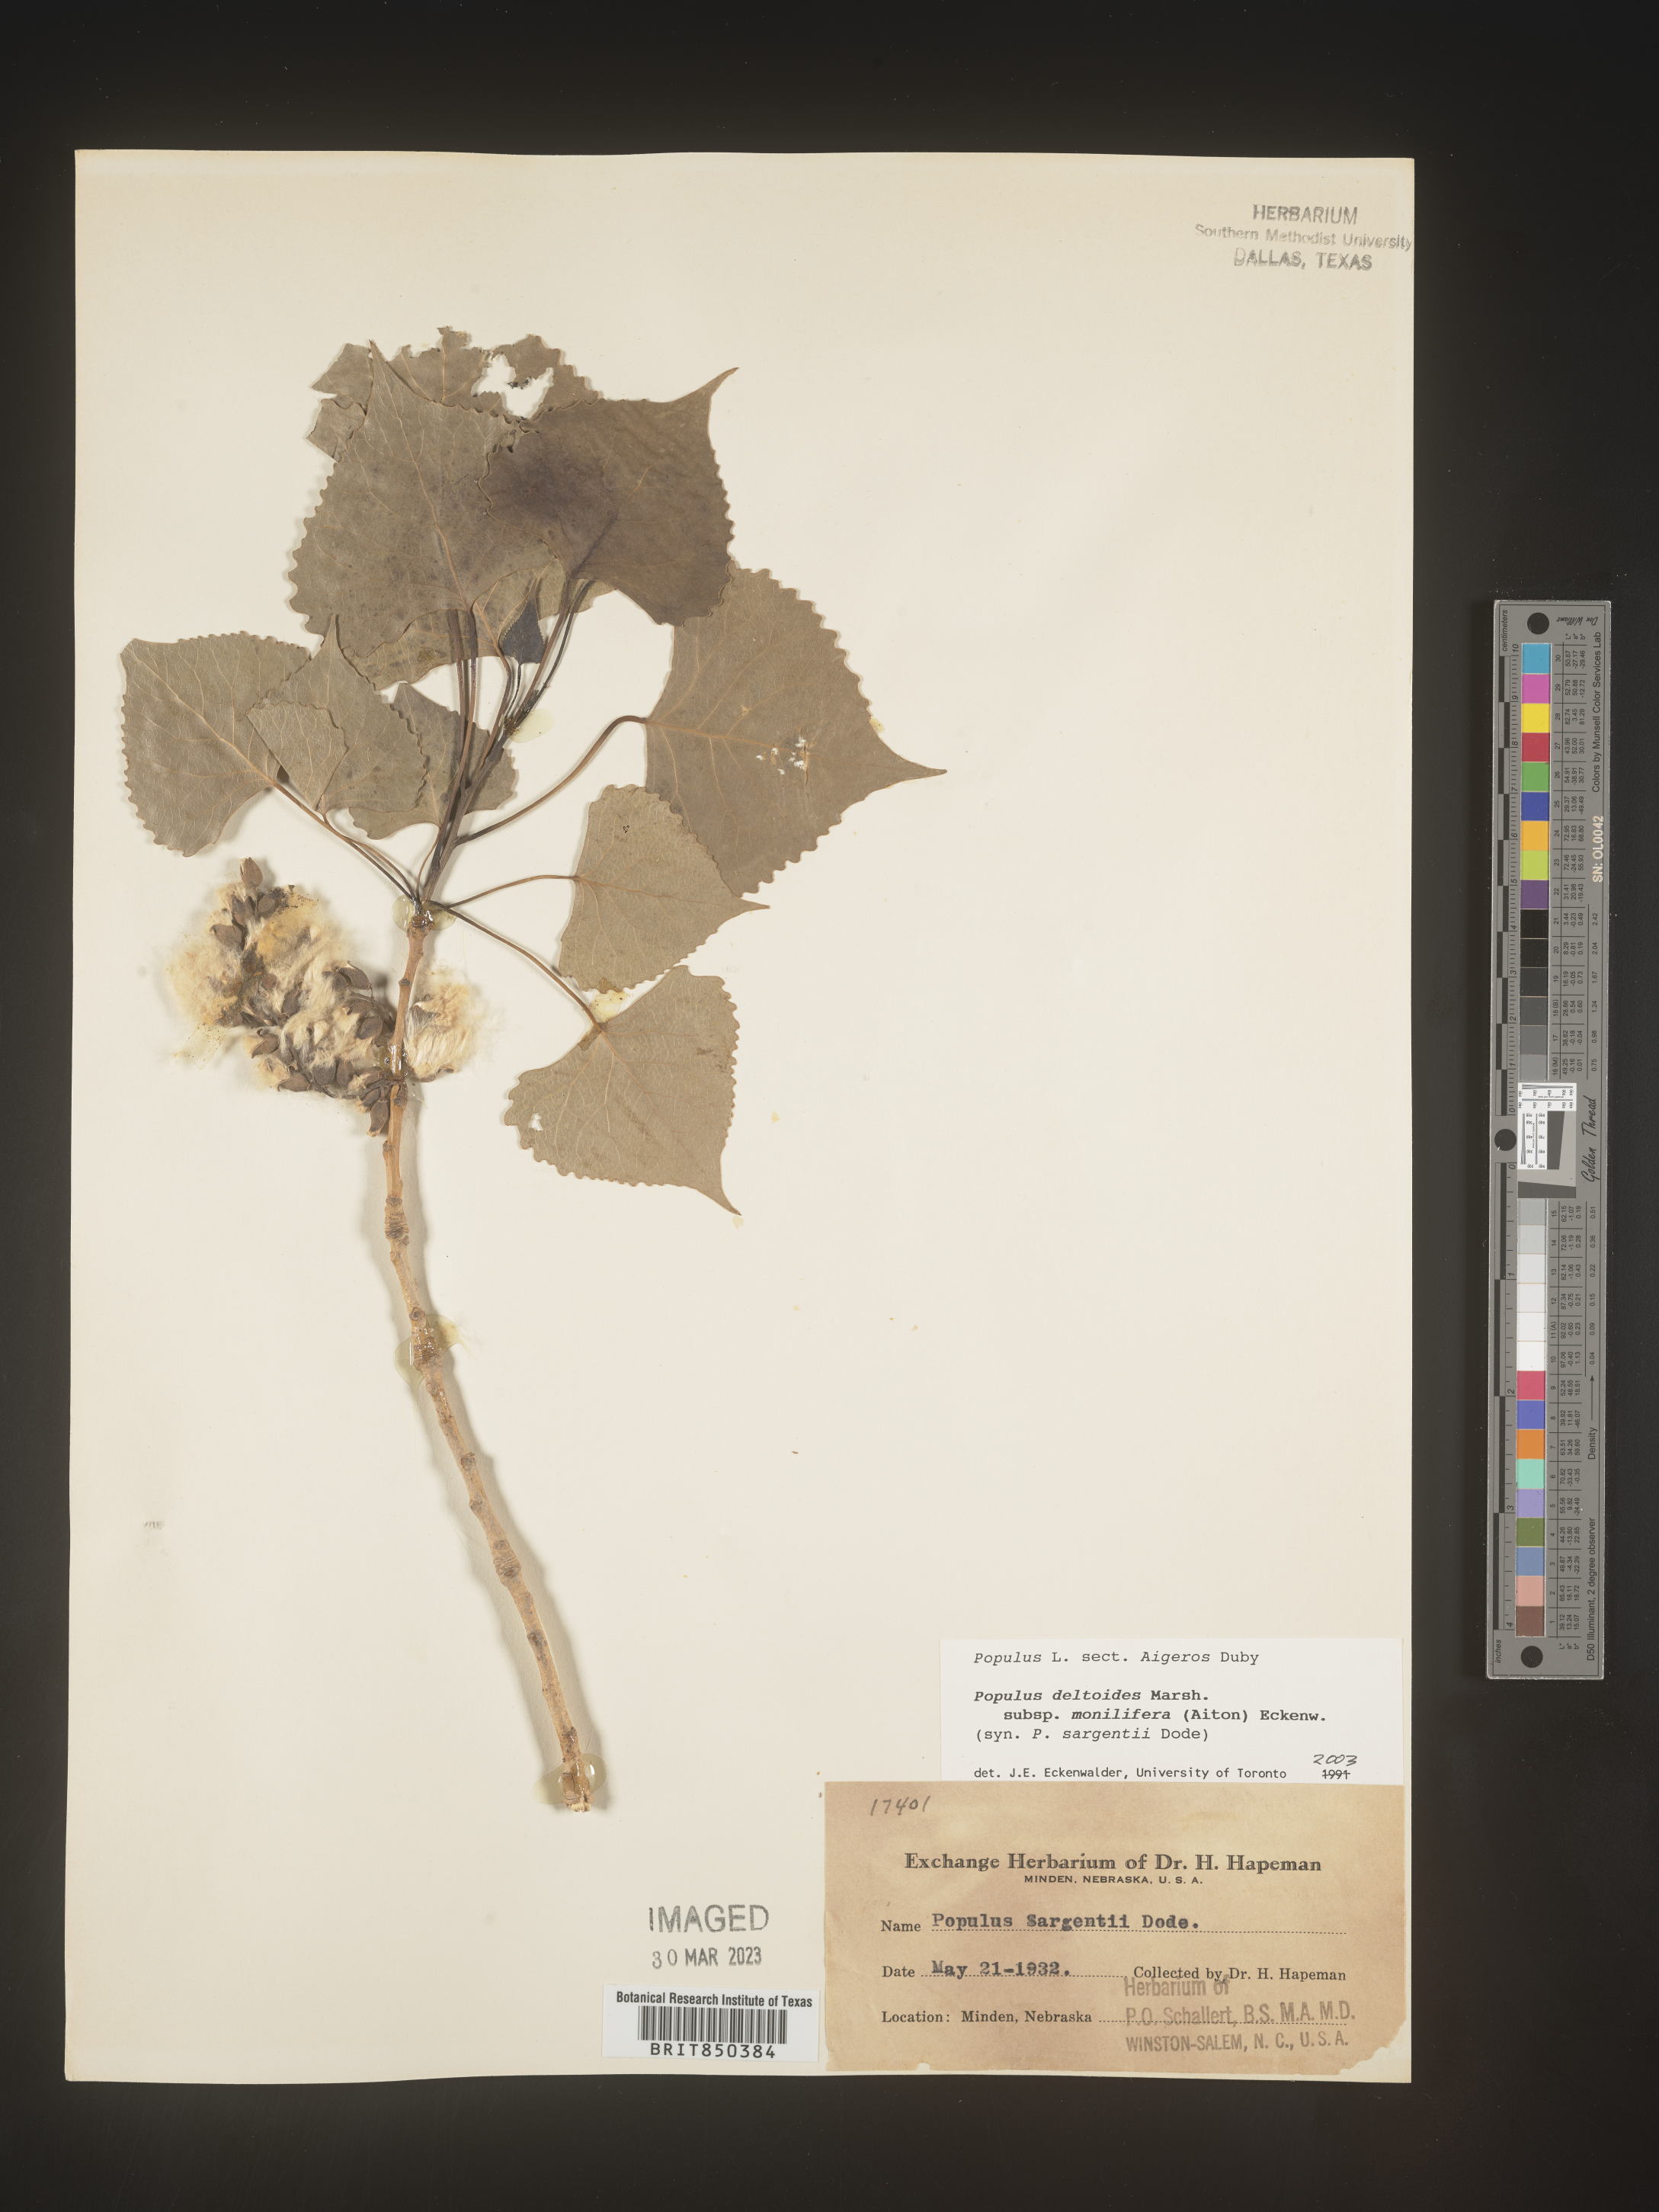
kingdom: Plantae
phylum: Tracheophyta
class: Magnoliopsida
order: Malpighiales
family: Salicaceae
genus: Populus
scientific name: Populus deltoides
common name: Eastern cottonwood
